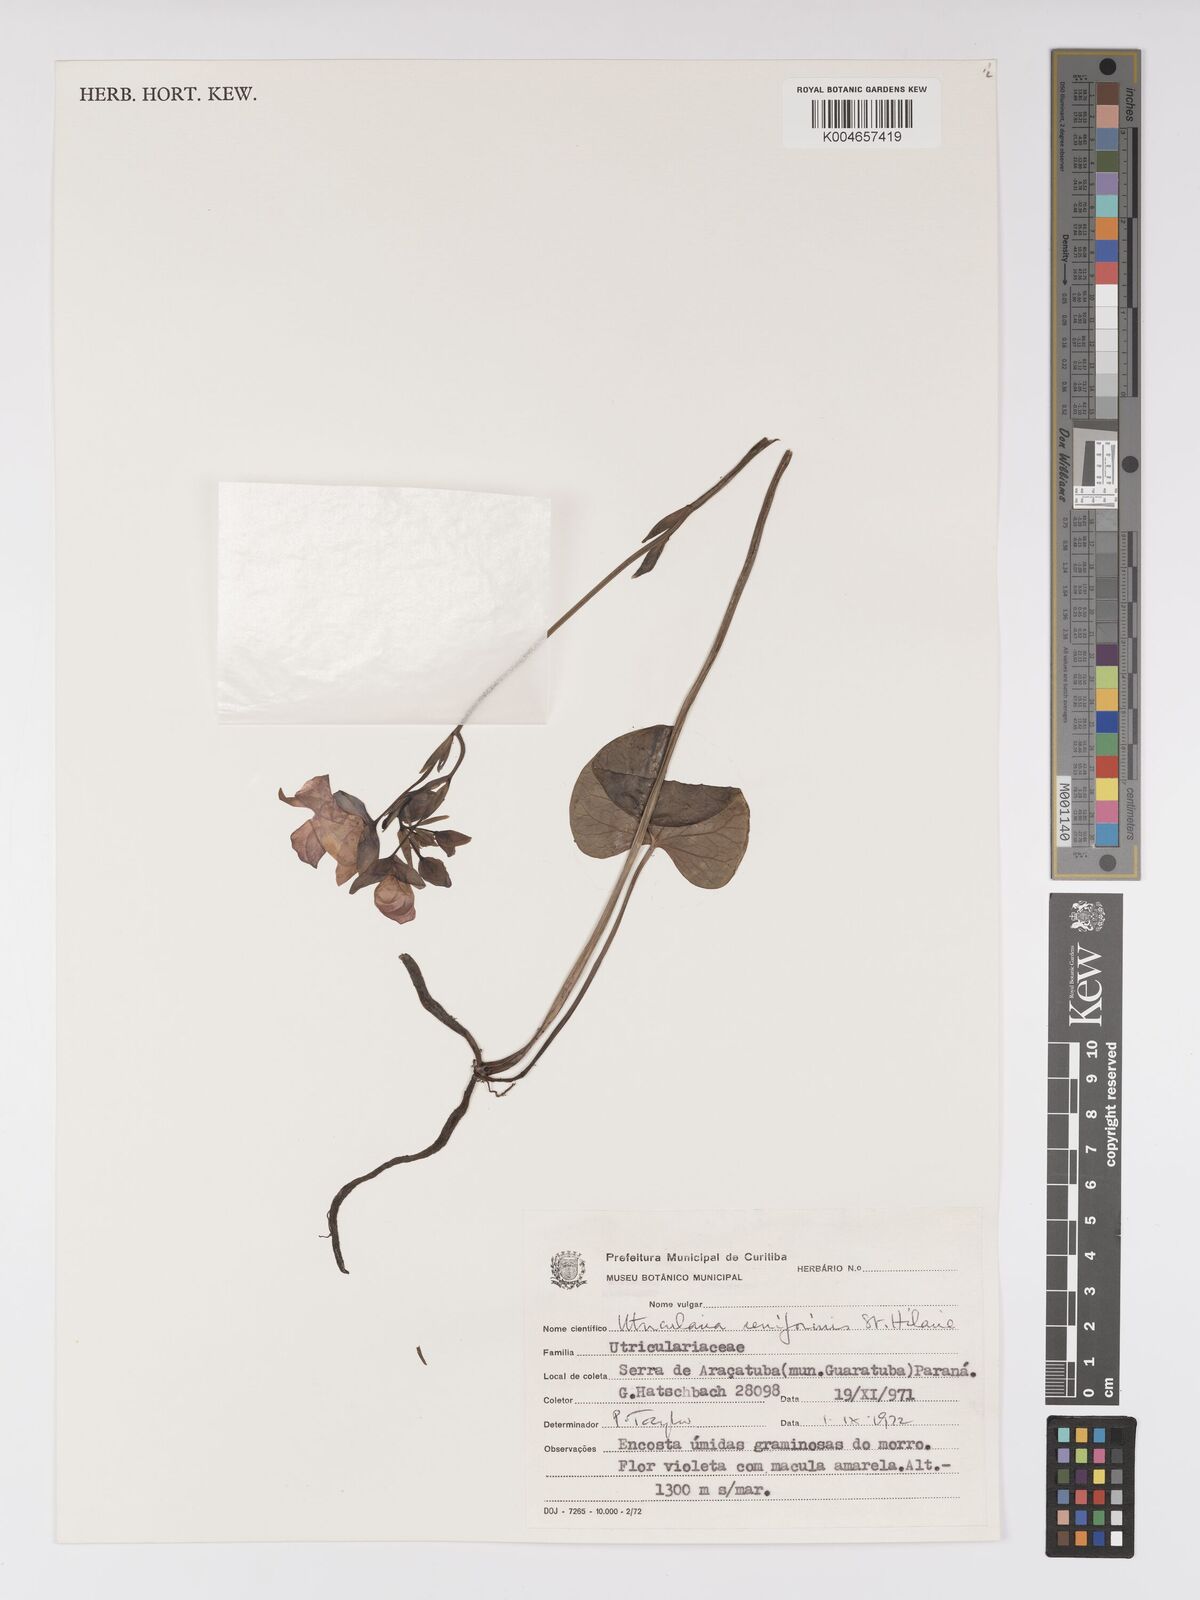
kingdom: Plantae
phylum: Tracheophyta
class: Magnoliopsida
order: Lamiales
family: Lentibulariaceae
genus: Utricularia
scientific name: Utricularia reniformis
